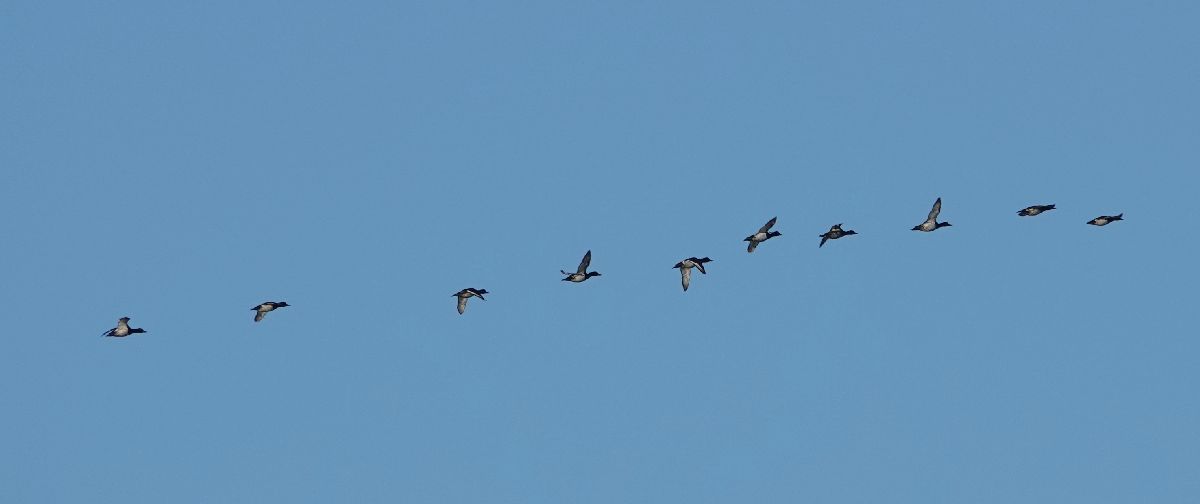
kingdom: Animalia
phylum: Chordata
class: Aves
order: Anseriformes
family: Anatidae
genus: Aythya
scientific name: Aythya fuligula
